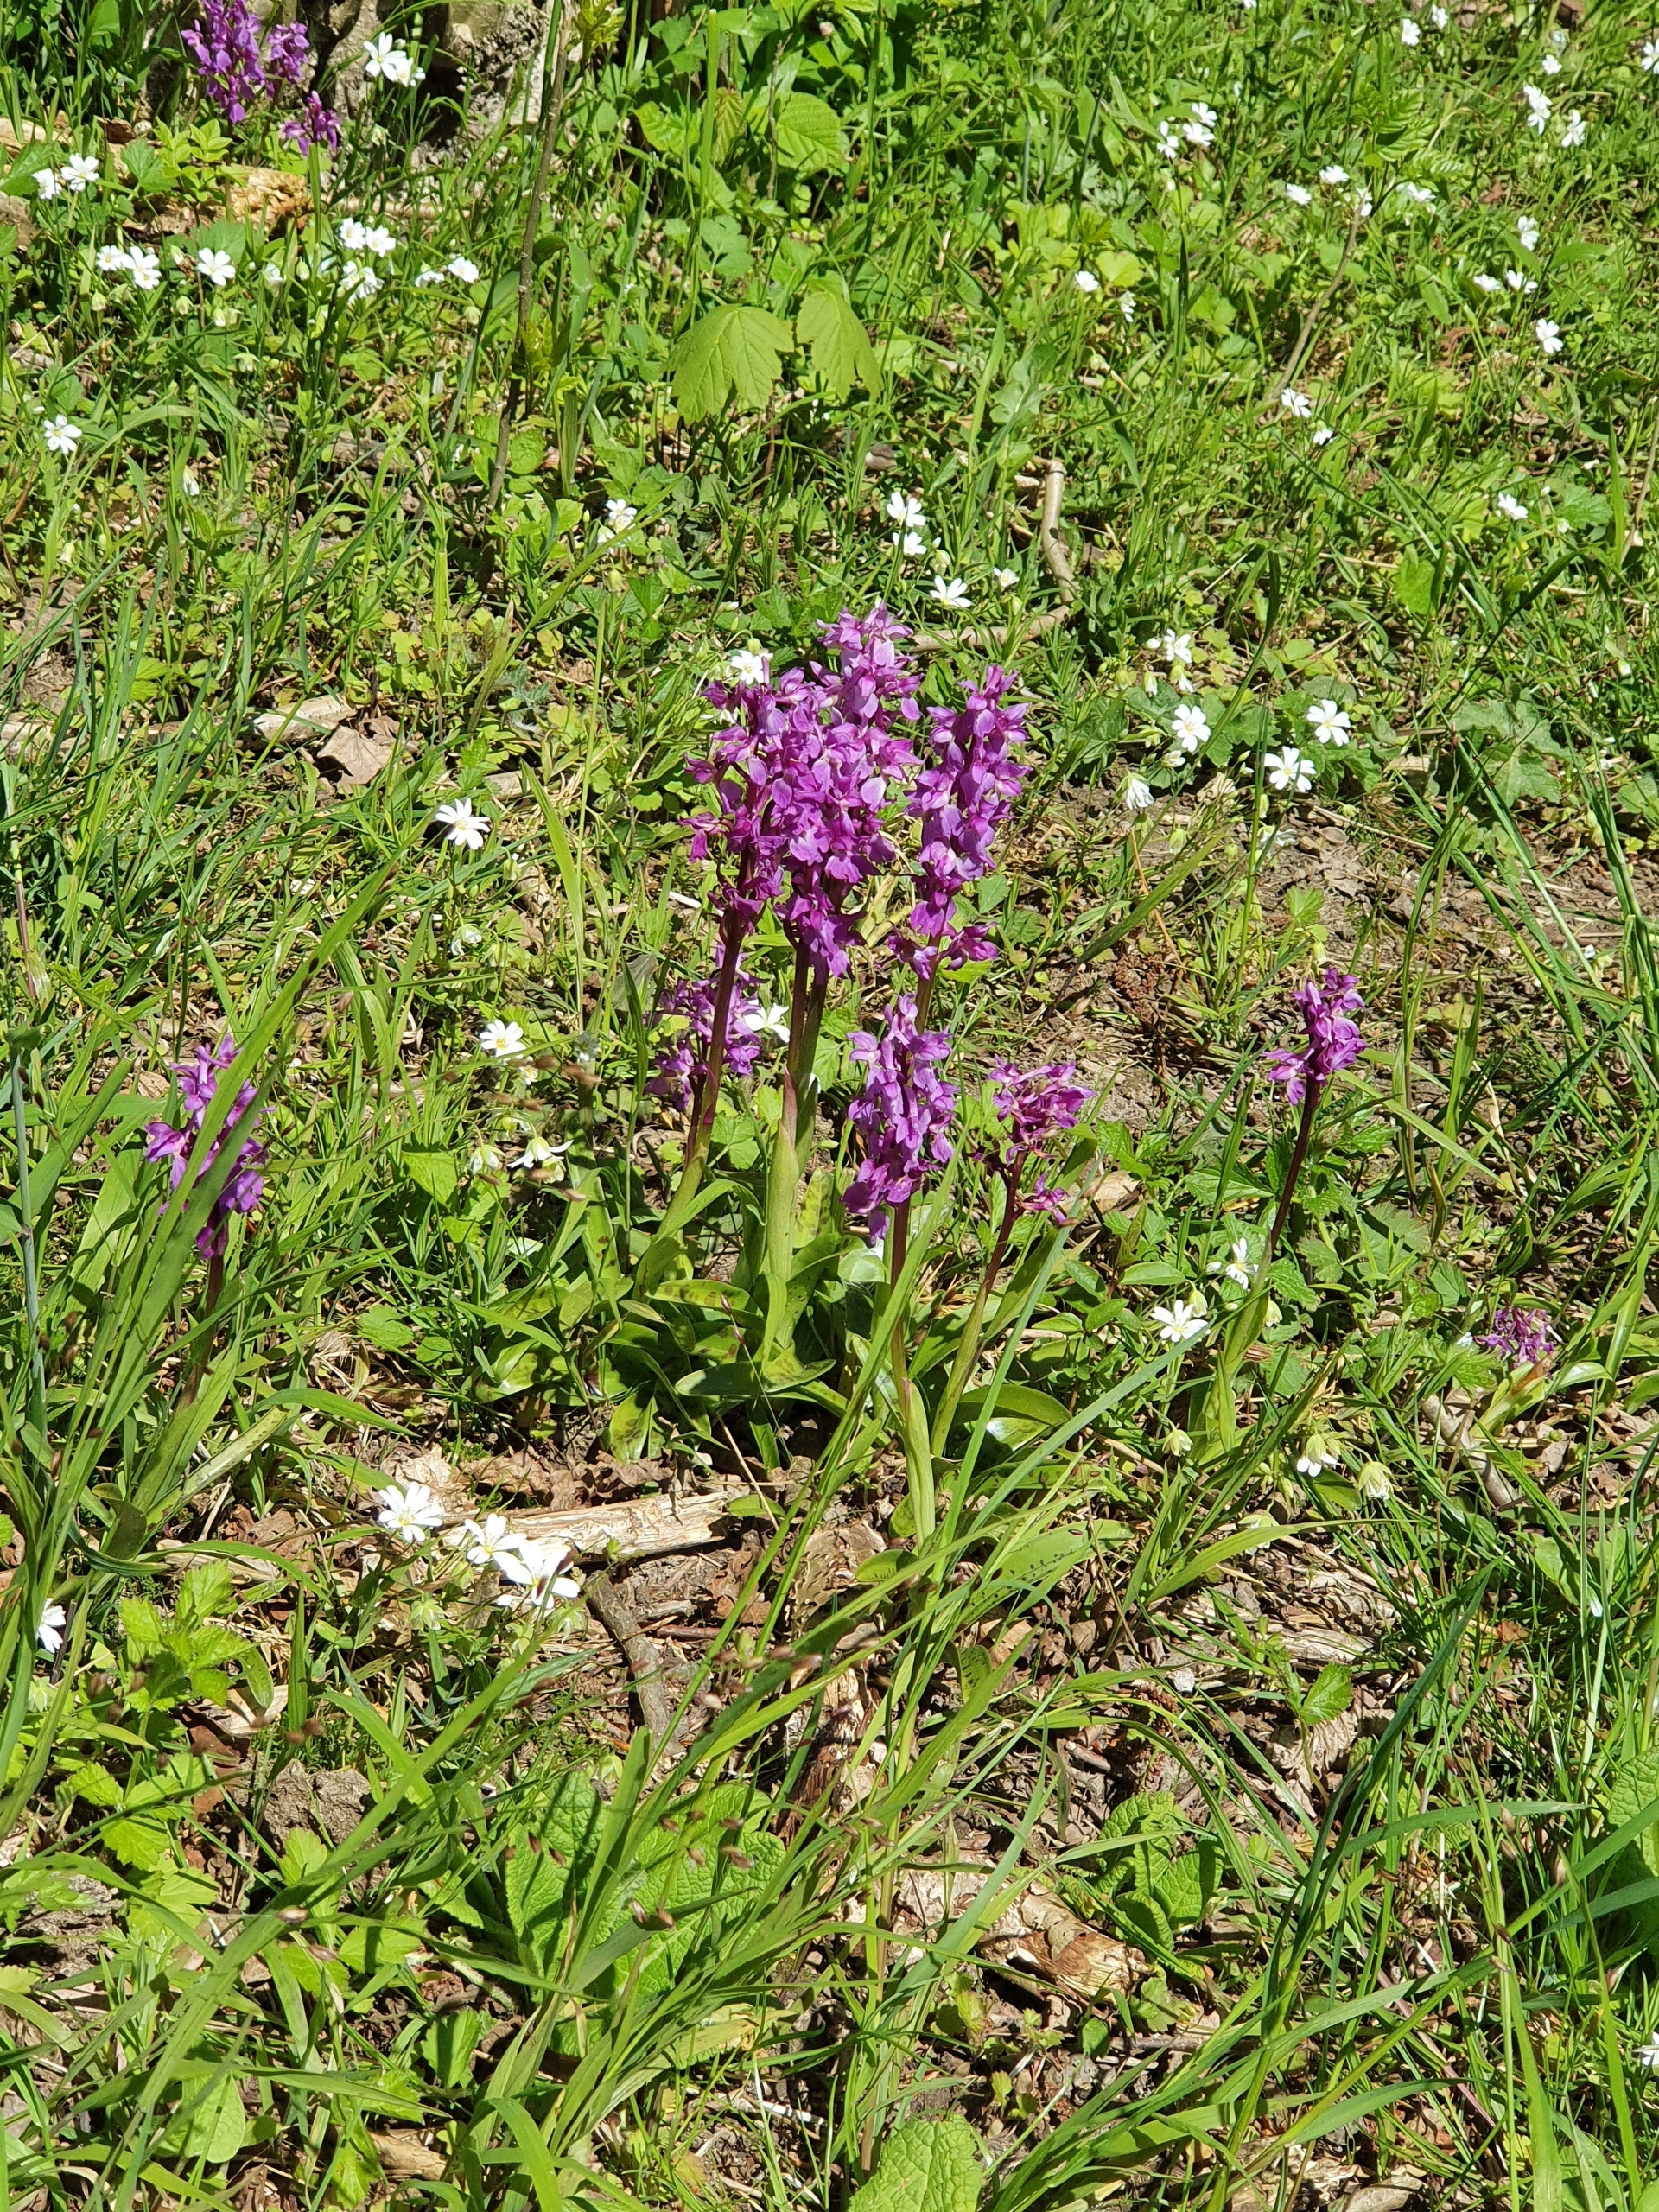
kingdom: Plantae
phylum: Tracheophyta
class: Liliopsida
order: Asparagales
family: Orchidaceae
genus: Orchis
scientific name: Orchis mascula
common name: Tyndakset gøgeurt
